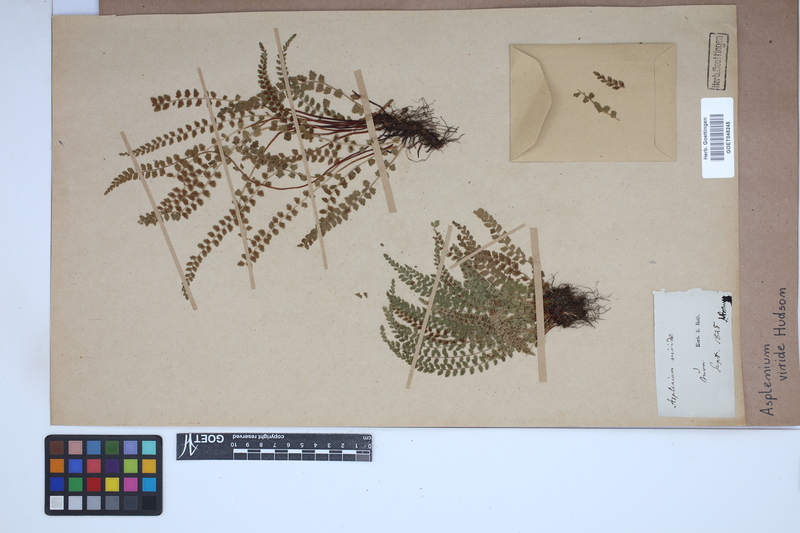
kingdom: Plantae
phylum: Tracheophyta
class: Polypodiopsida
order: Polypodiales
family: Aspleniaceae
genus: Asplenium
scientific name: Asplenium viride
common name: Green spleenwort
